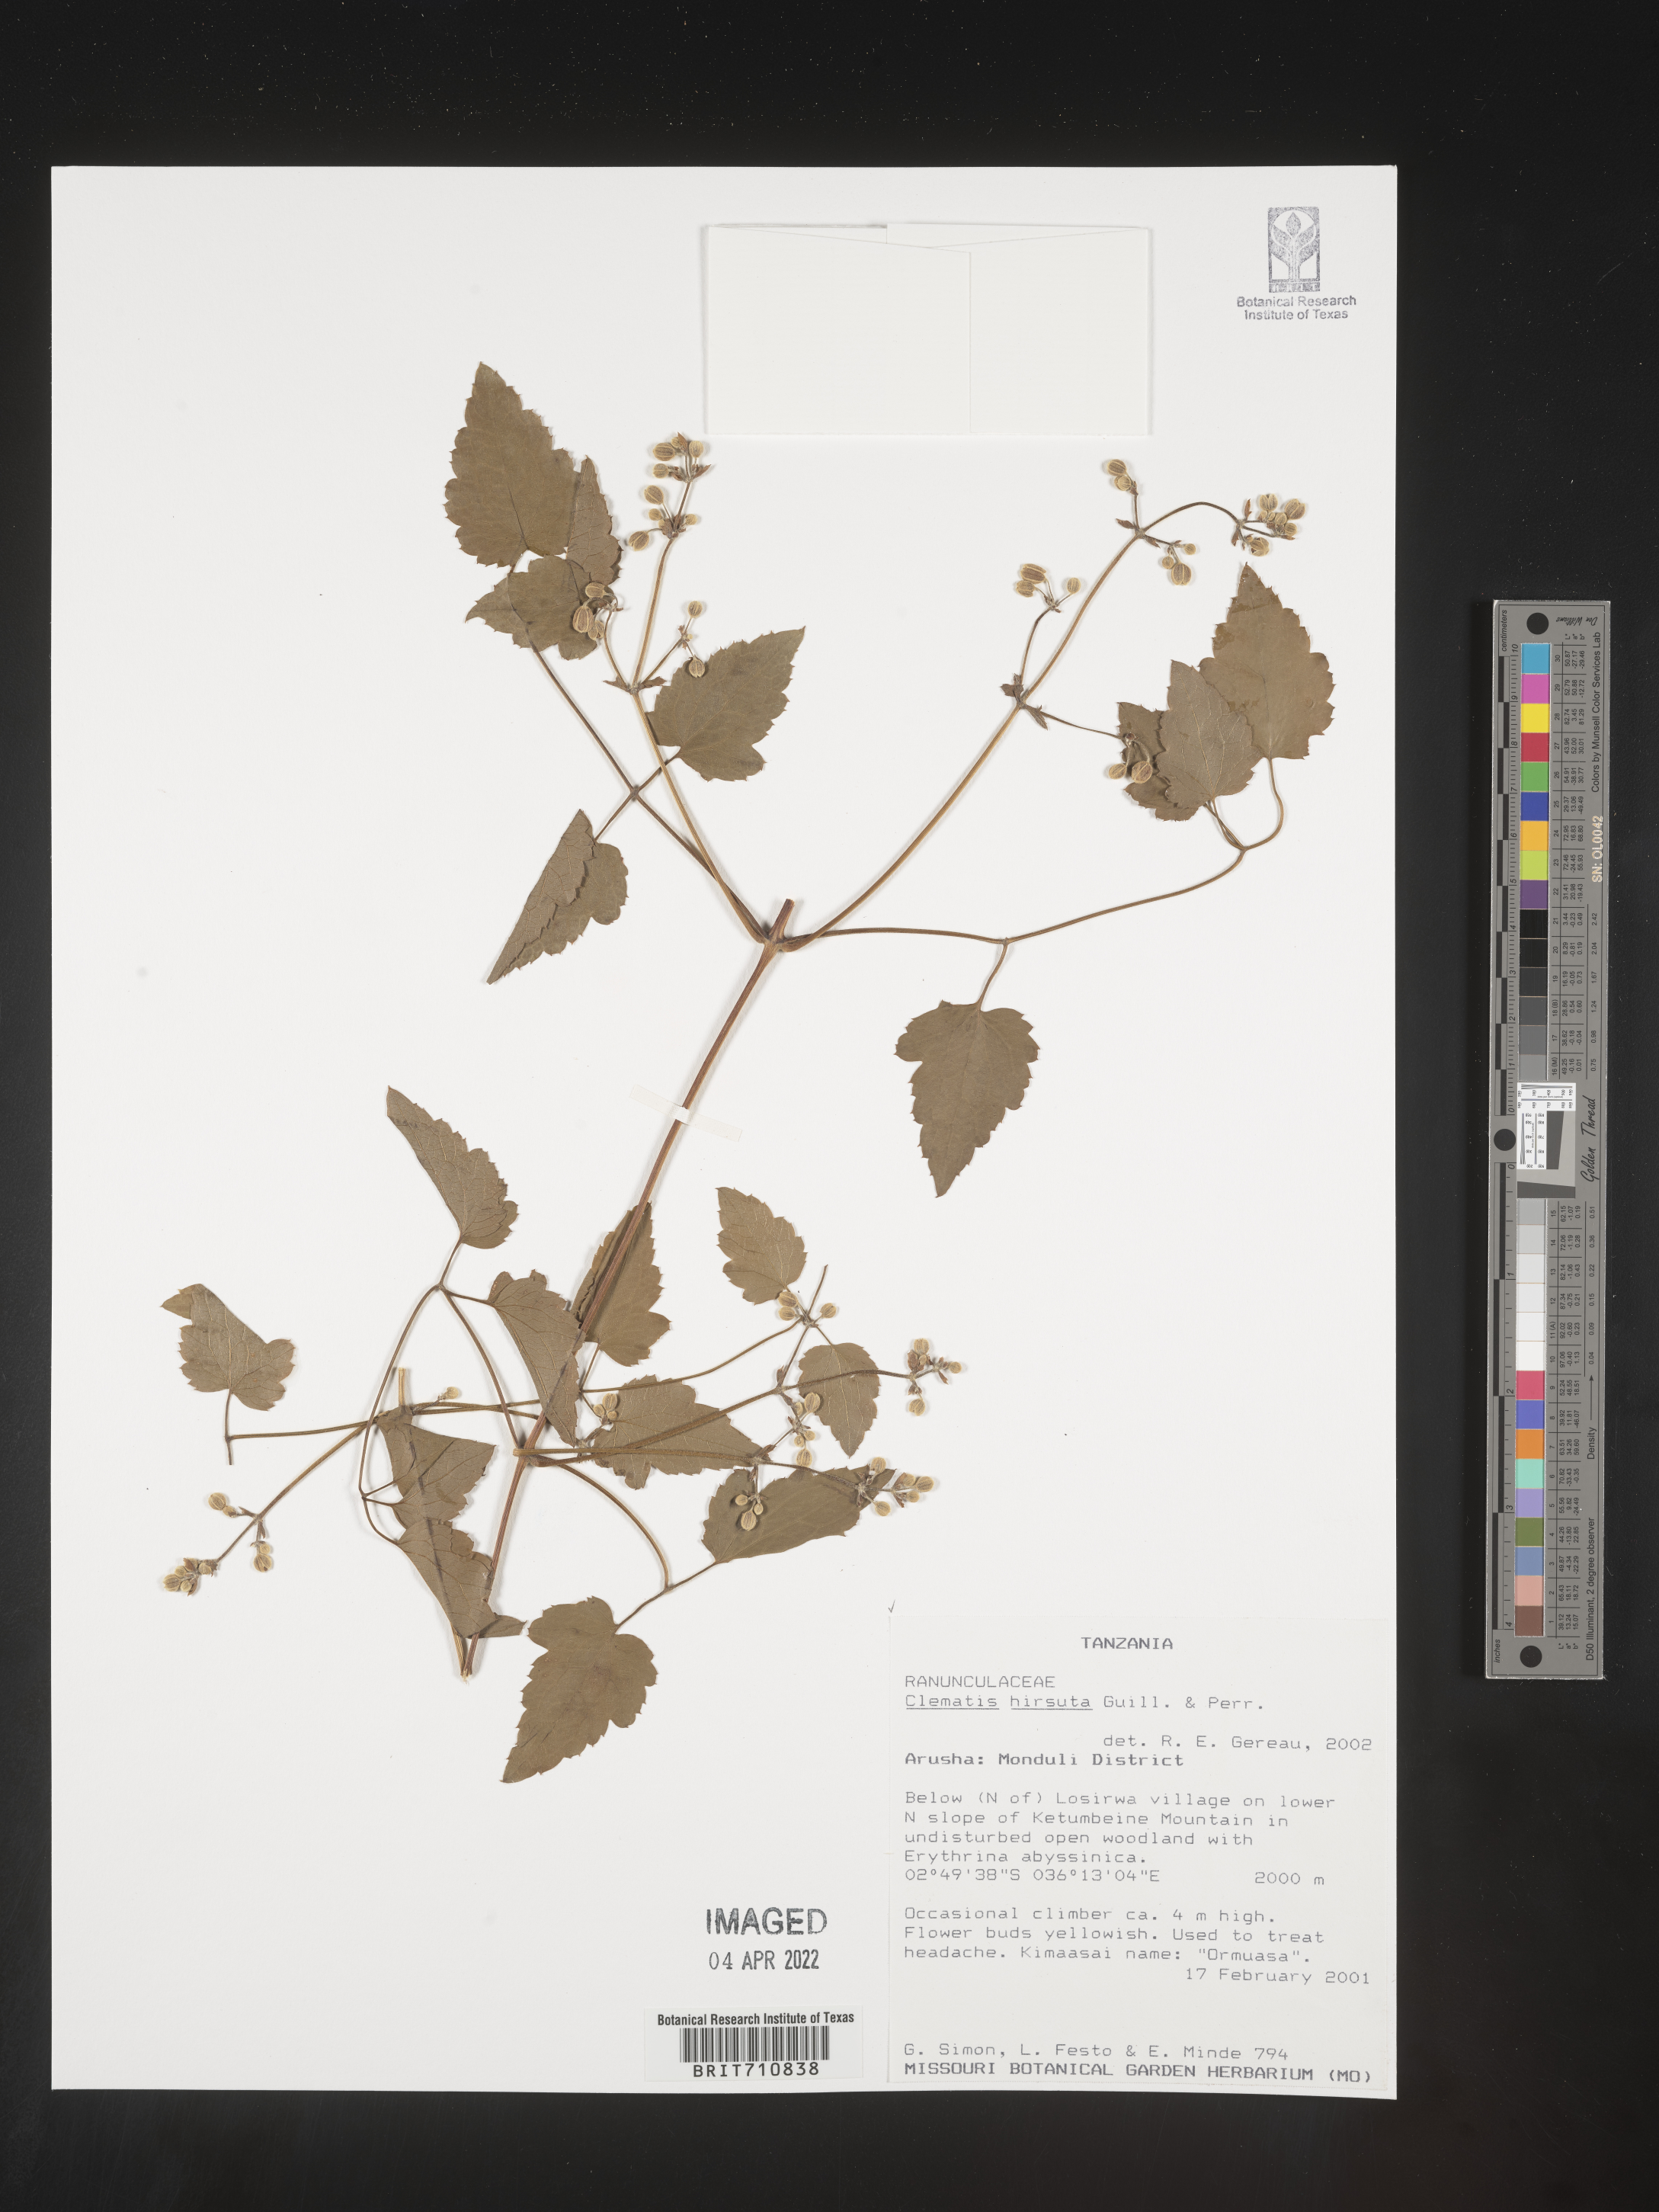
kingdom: Plantae
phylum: Tracheophyta
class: Magnoliopsida
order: Ranunculales
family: Ranunculaceae
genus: Clematis
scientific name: Clematis
